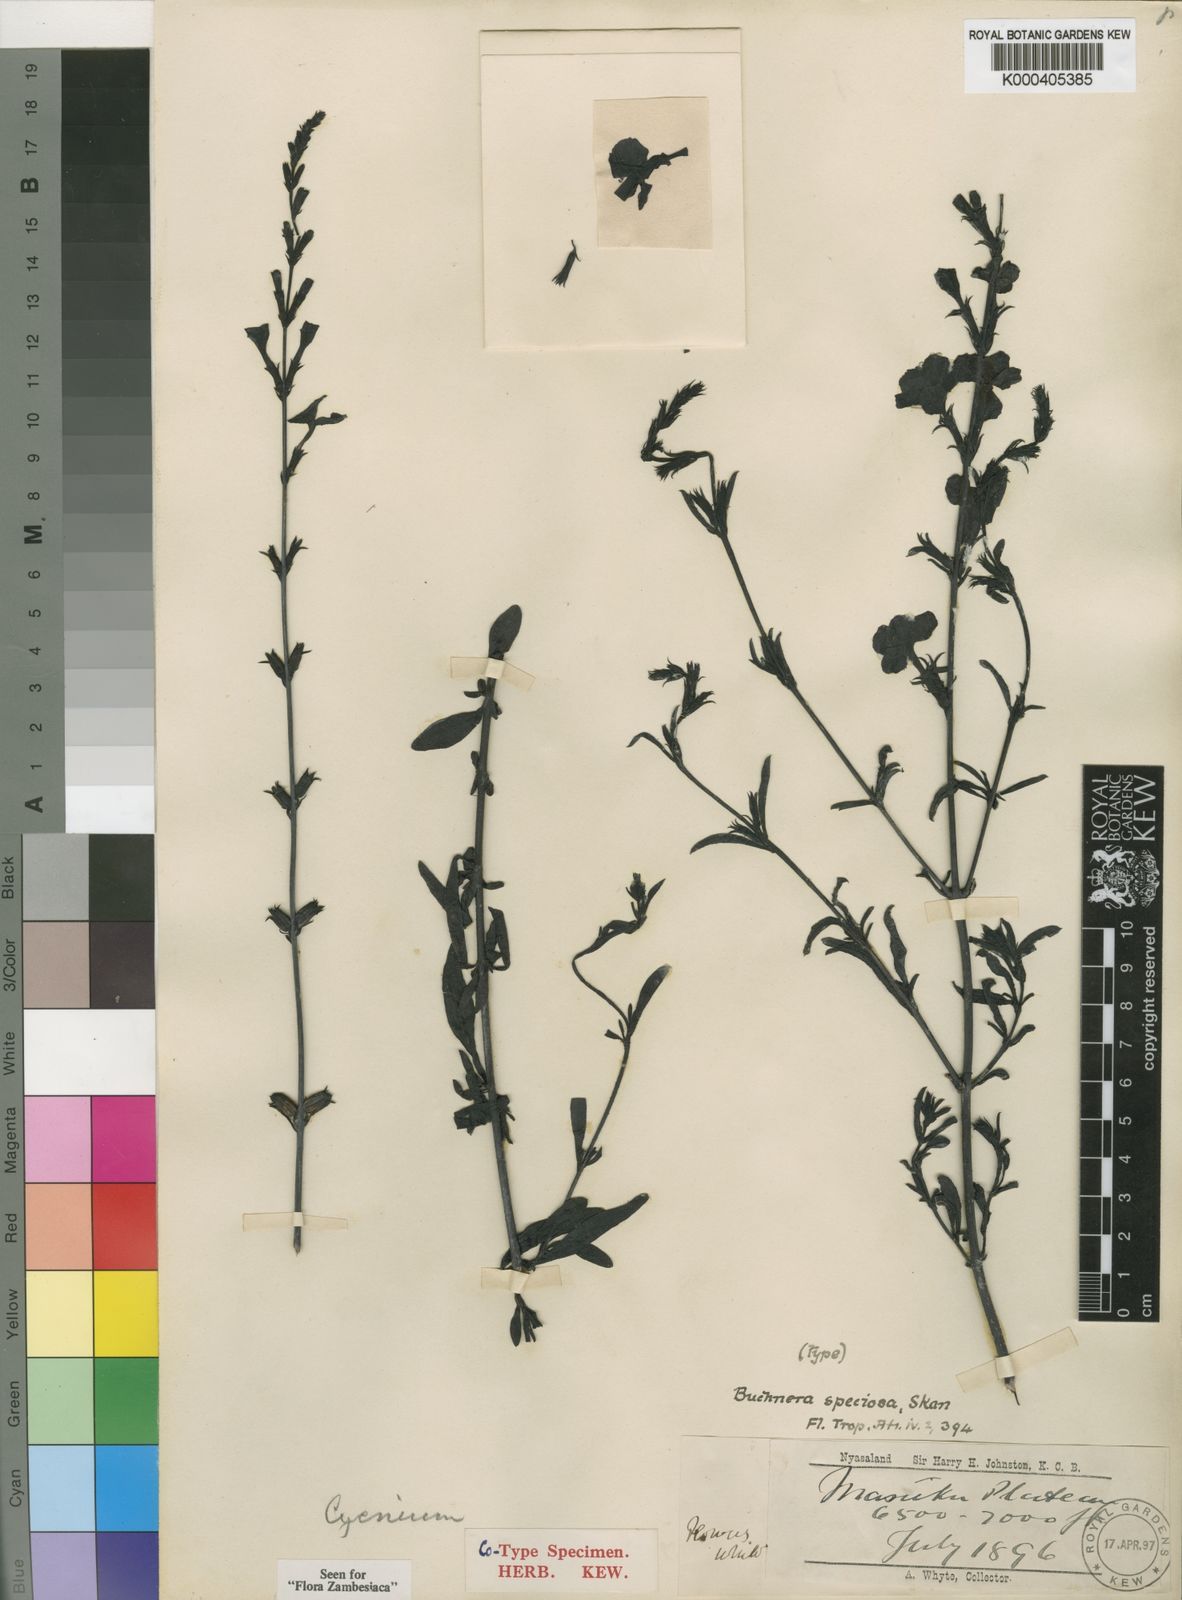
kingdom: Plantae
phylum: Tracheophyta
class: Magnoliopsida
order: Lamiales
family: Orobanchaceae
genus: Buchnera
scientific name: Buchnera speciosa
